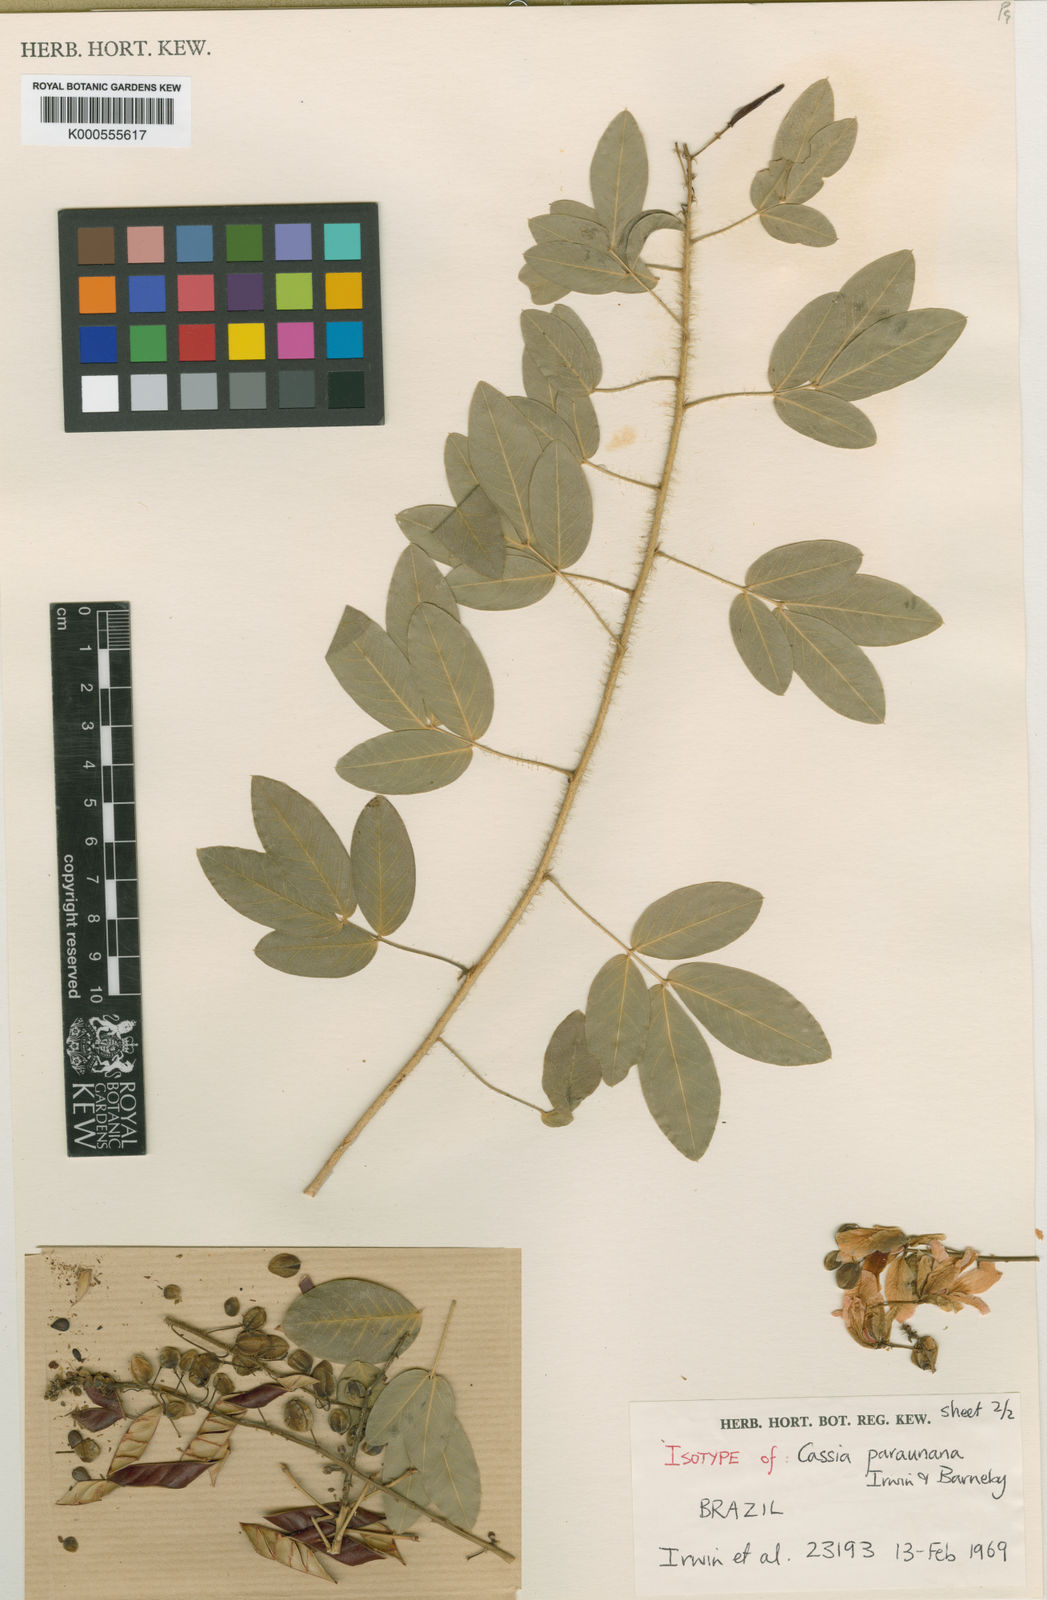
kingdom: Plantae
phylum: Tracheophyta
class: Magnoliopsida
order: Fabales
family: Fabaceae
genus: Chamaecrista
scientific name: Chamaecrista paraunana
